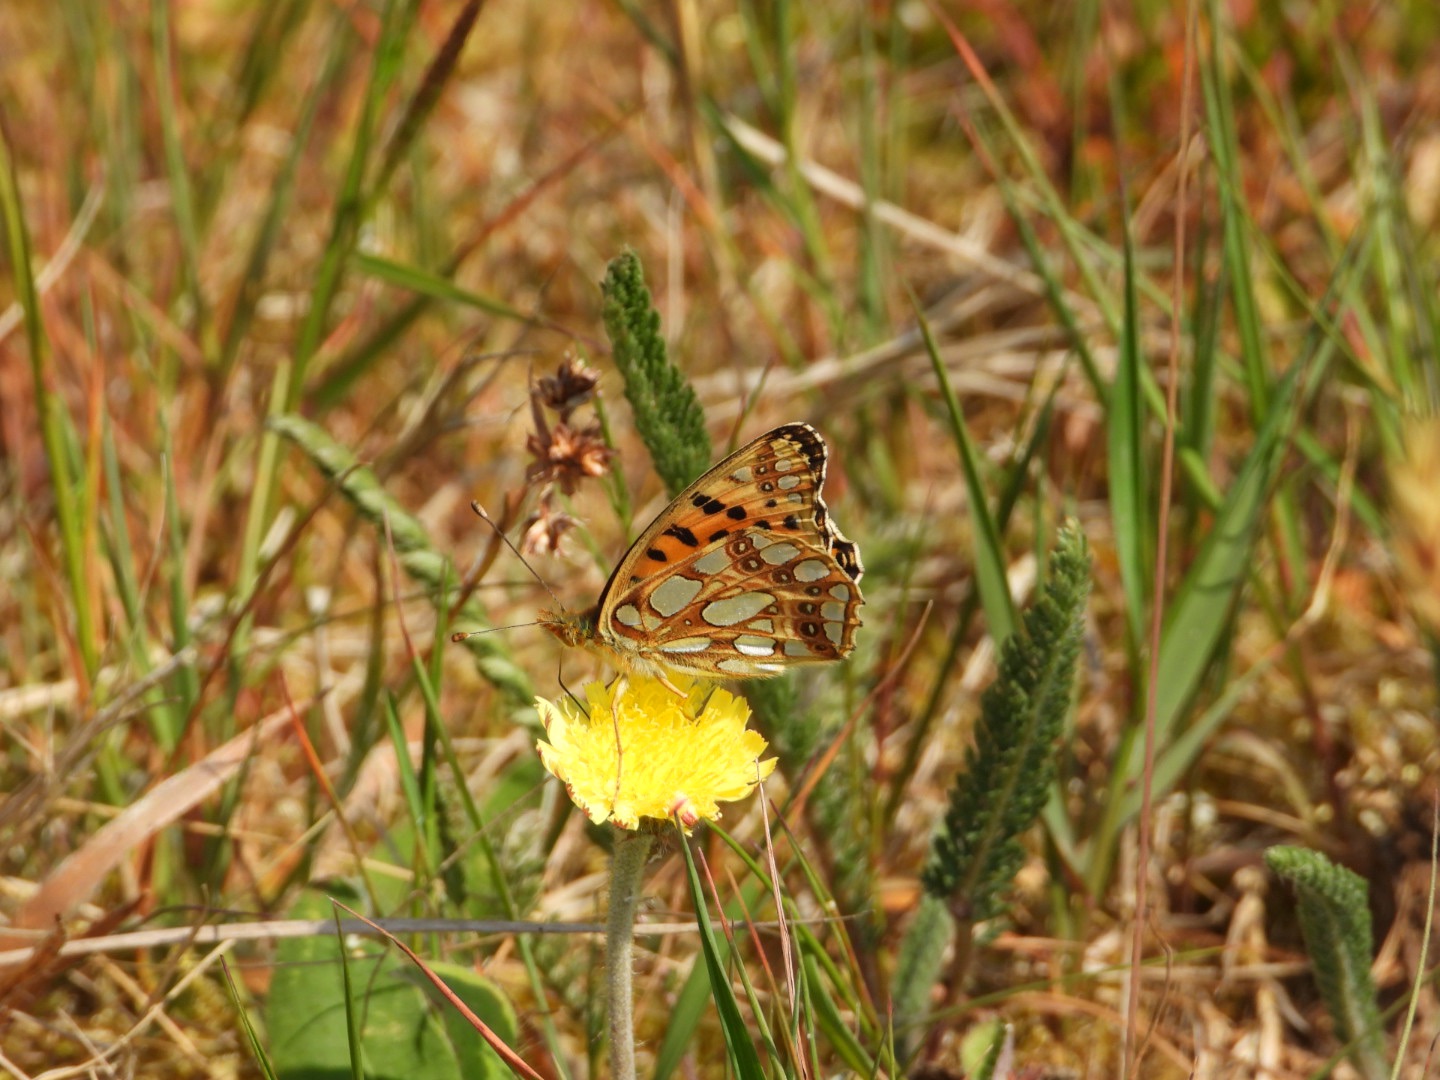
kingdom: Animalia
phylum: Arthropoda
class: Insecta
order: Lepidoptera
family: Nymphalidae
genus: Issoria
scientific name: Issoria lathonia
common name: Storplettet perlemorsommerfugl
